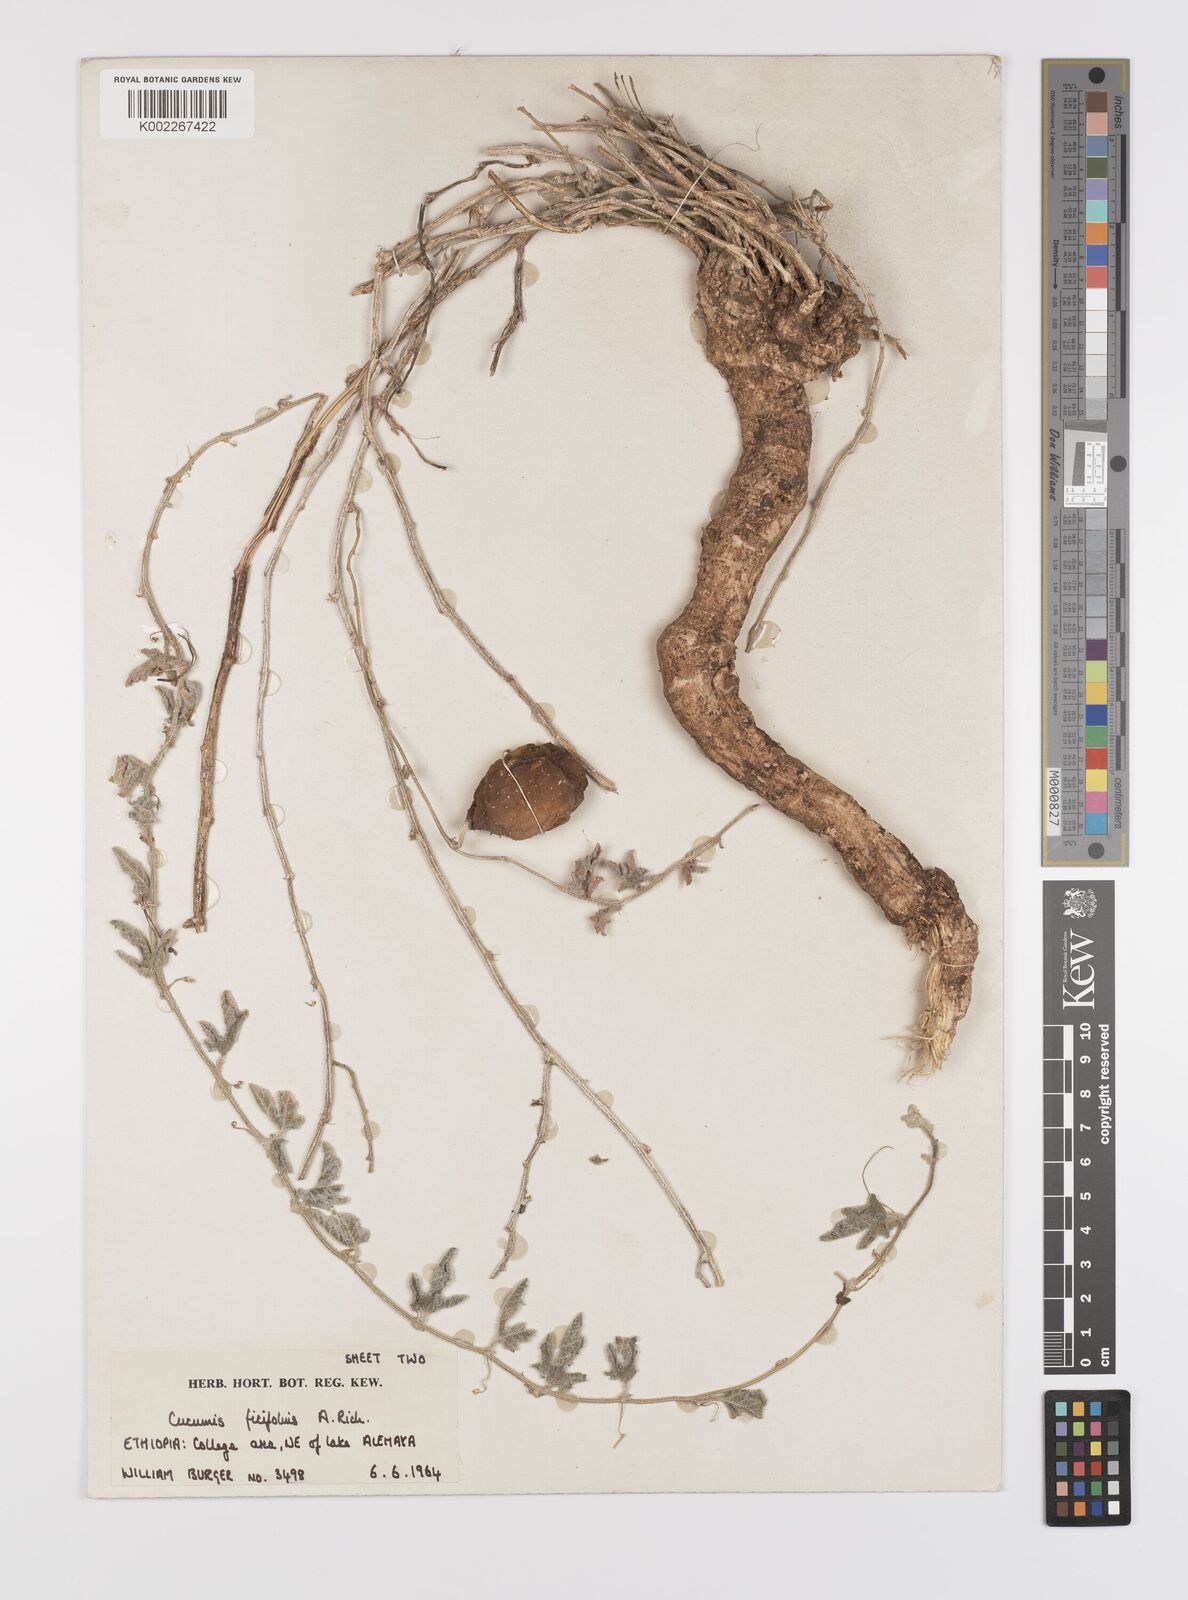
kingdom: Plantae
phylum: Tracheophyta
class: Magnoliopsida
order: Cucurbitales
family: Cucurbitaceae
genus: Cucumis
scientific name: Cucumis ficifolius
